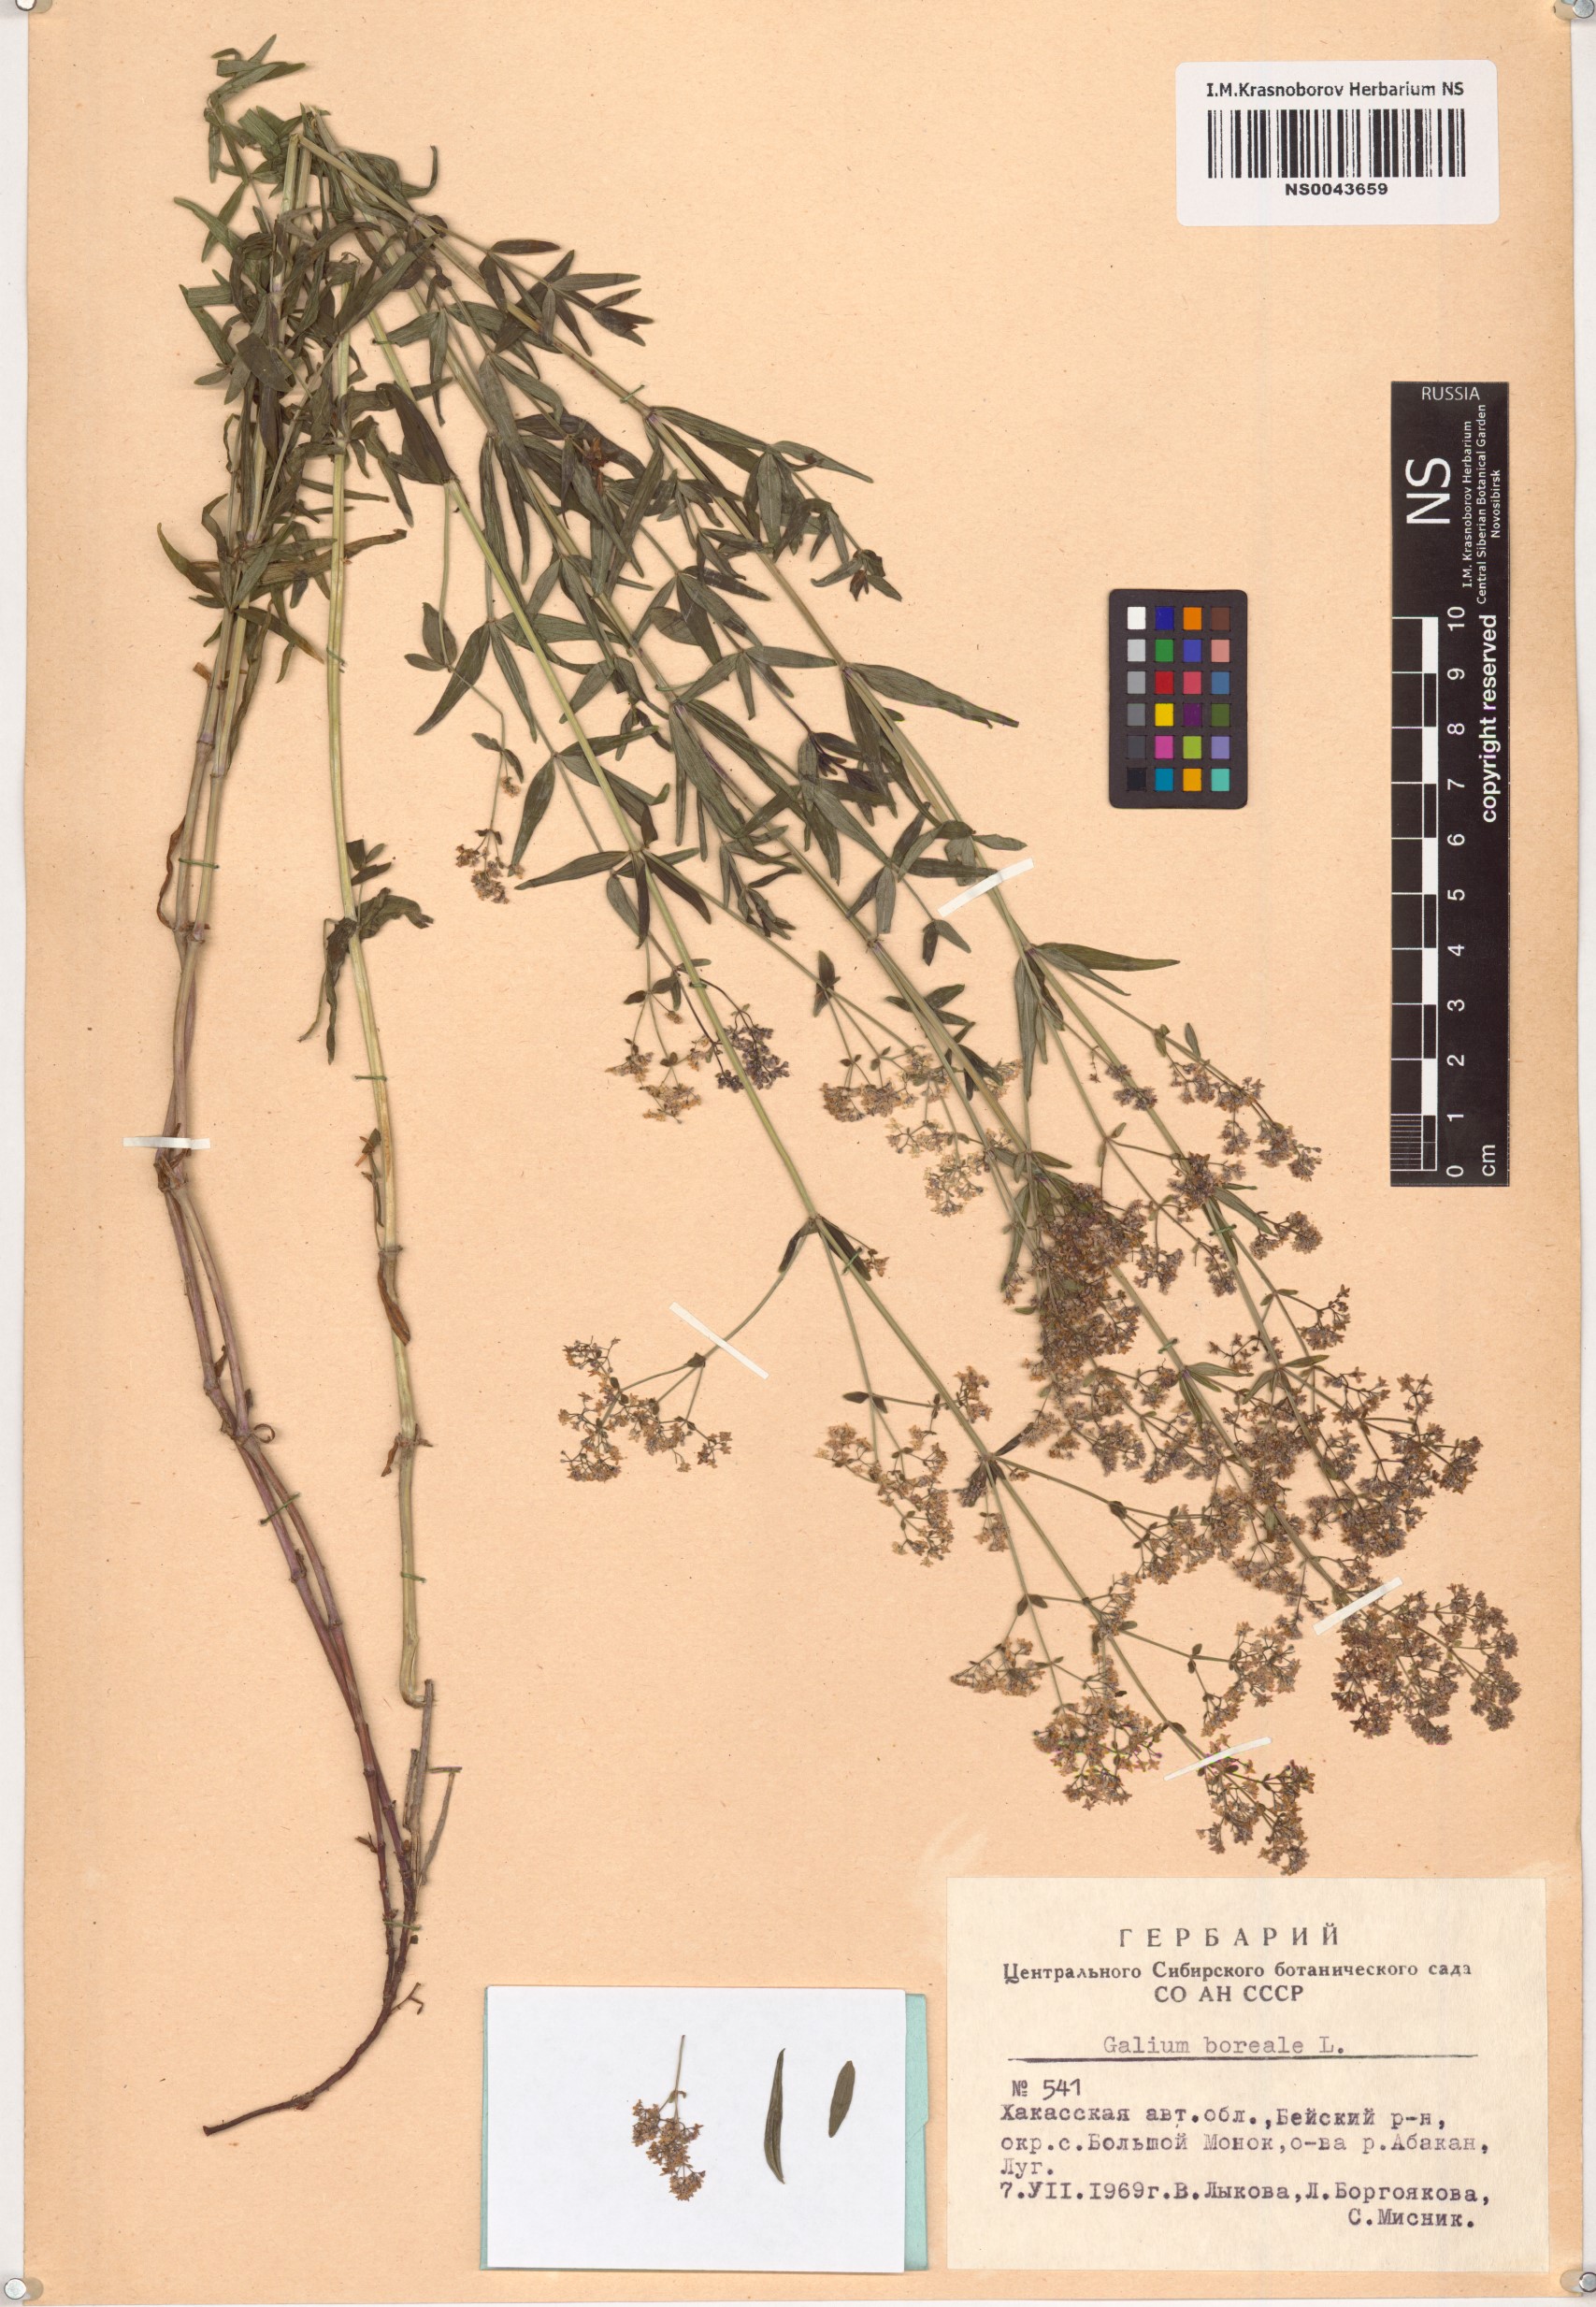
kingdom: Plantae
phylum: Tracheophyta
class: Magnoliopsida
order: Gentianales
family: Rubiaceae
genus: Galium
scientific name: Galium boreale
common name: Northern bedstraw
